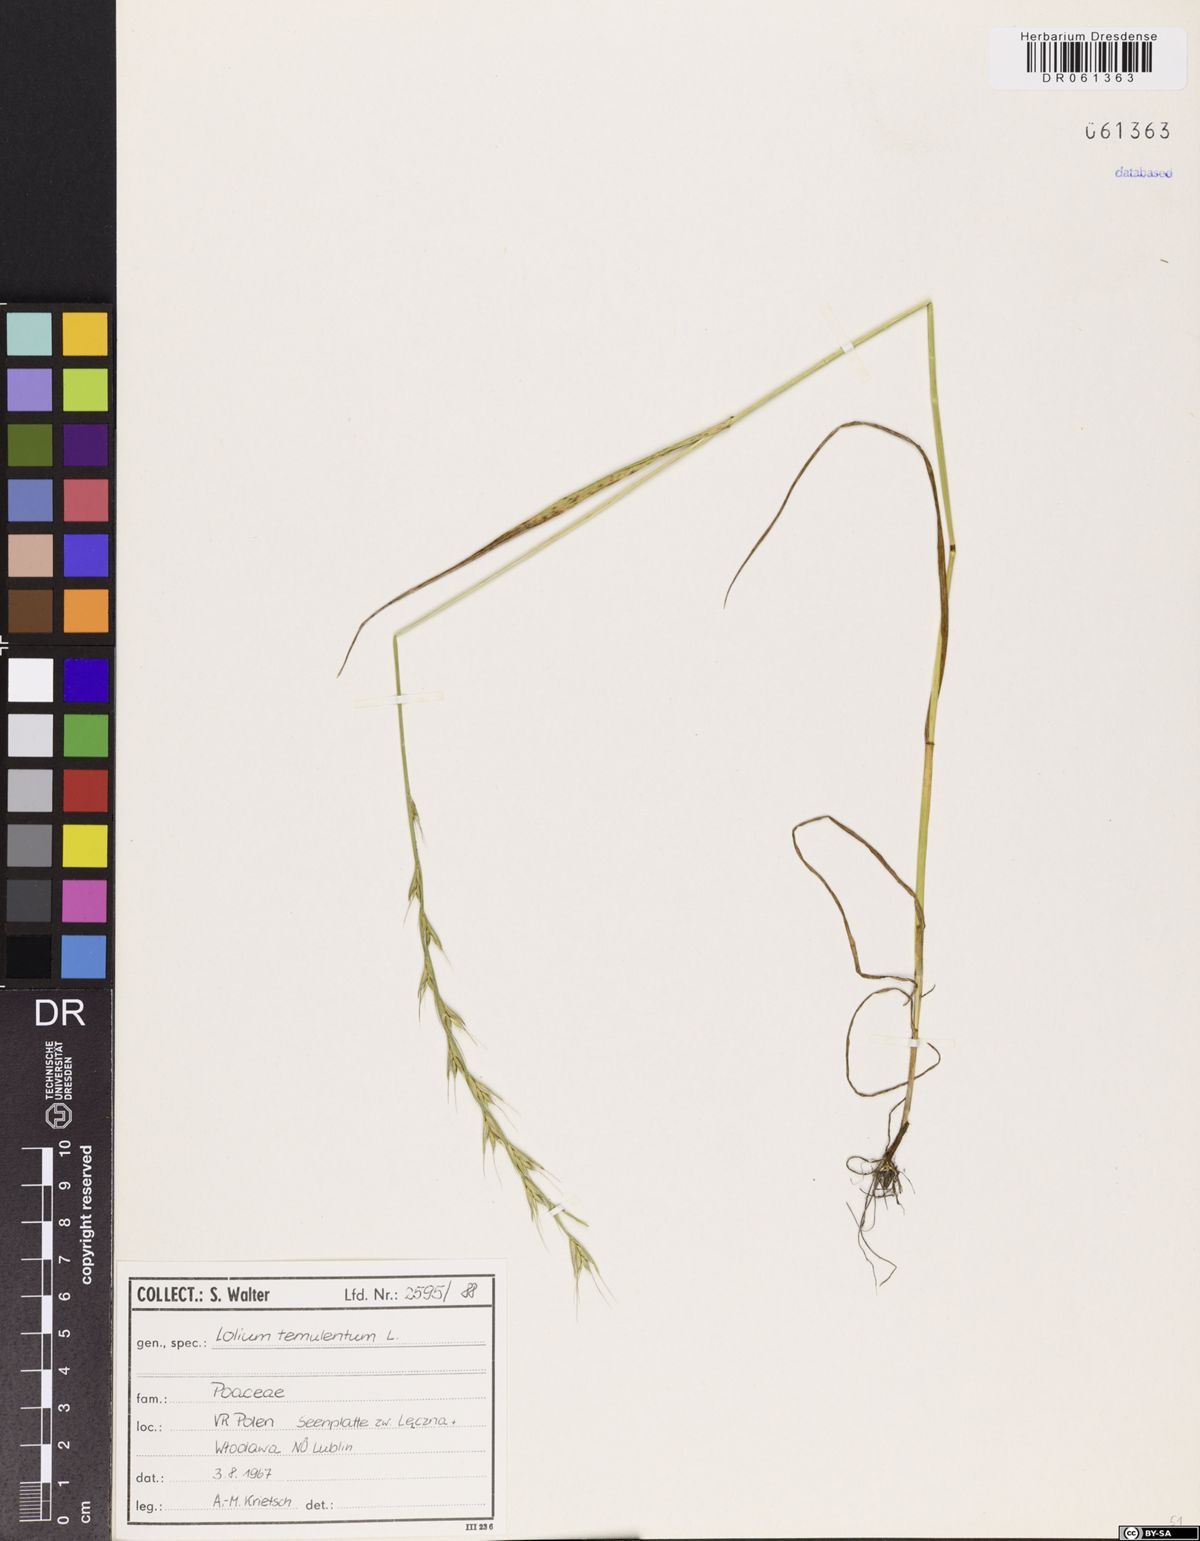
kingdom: Plantae
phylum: Tracheophyta
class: Liliopsida
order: Poales
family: Poaceae
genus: Lolium
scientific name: Lolium temulentum
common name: Darnel
